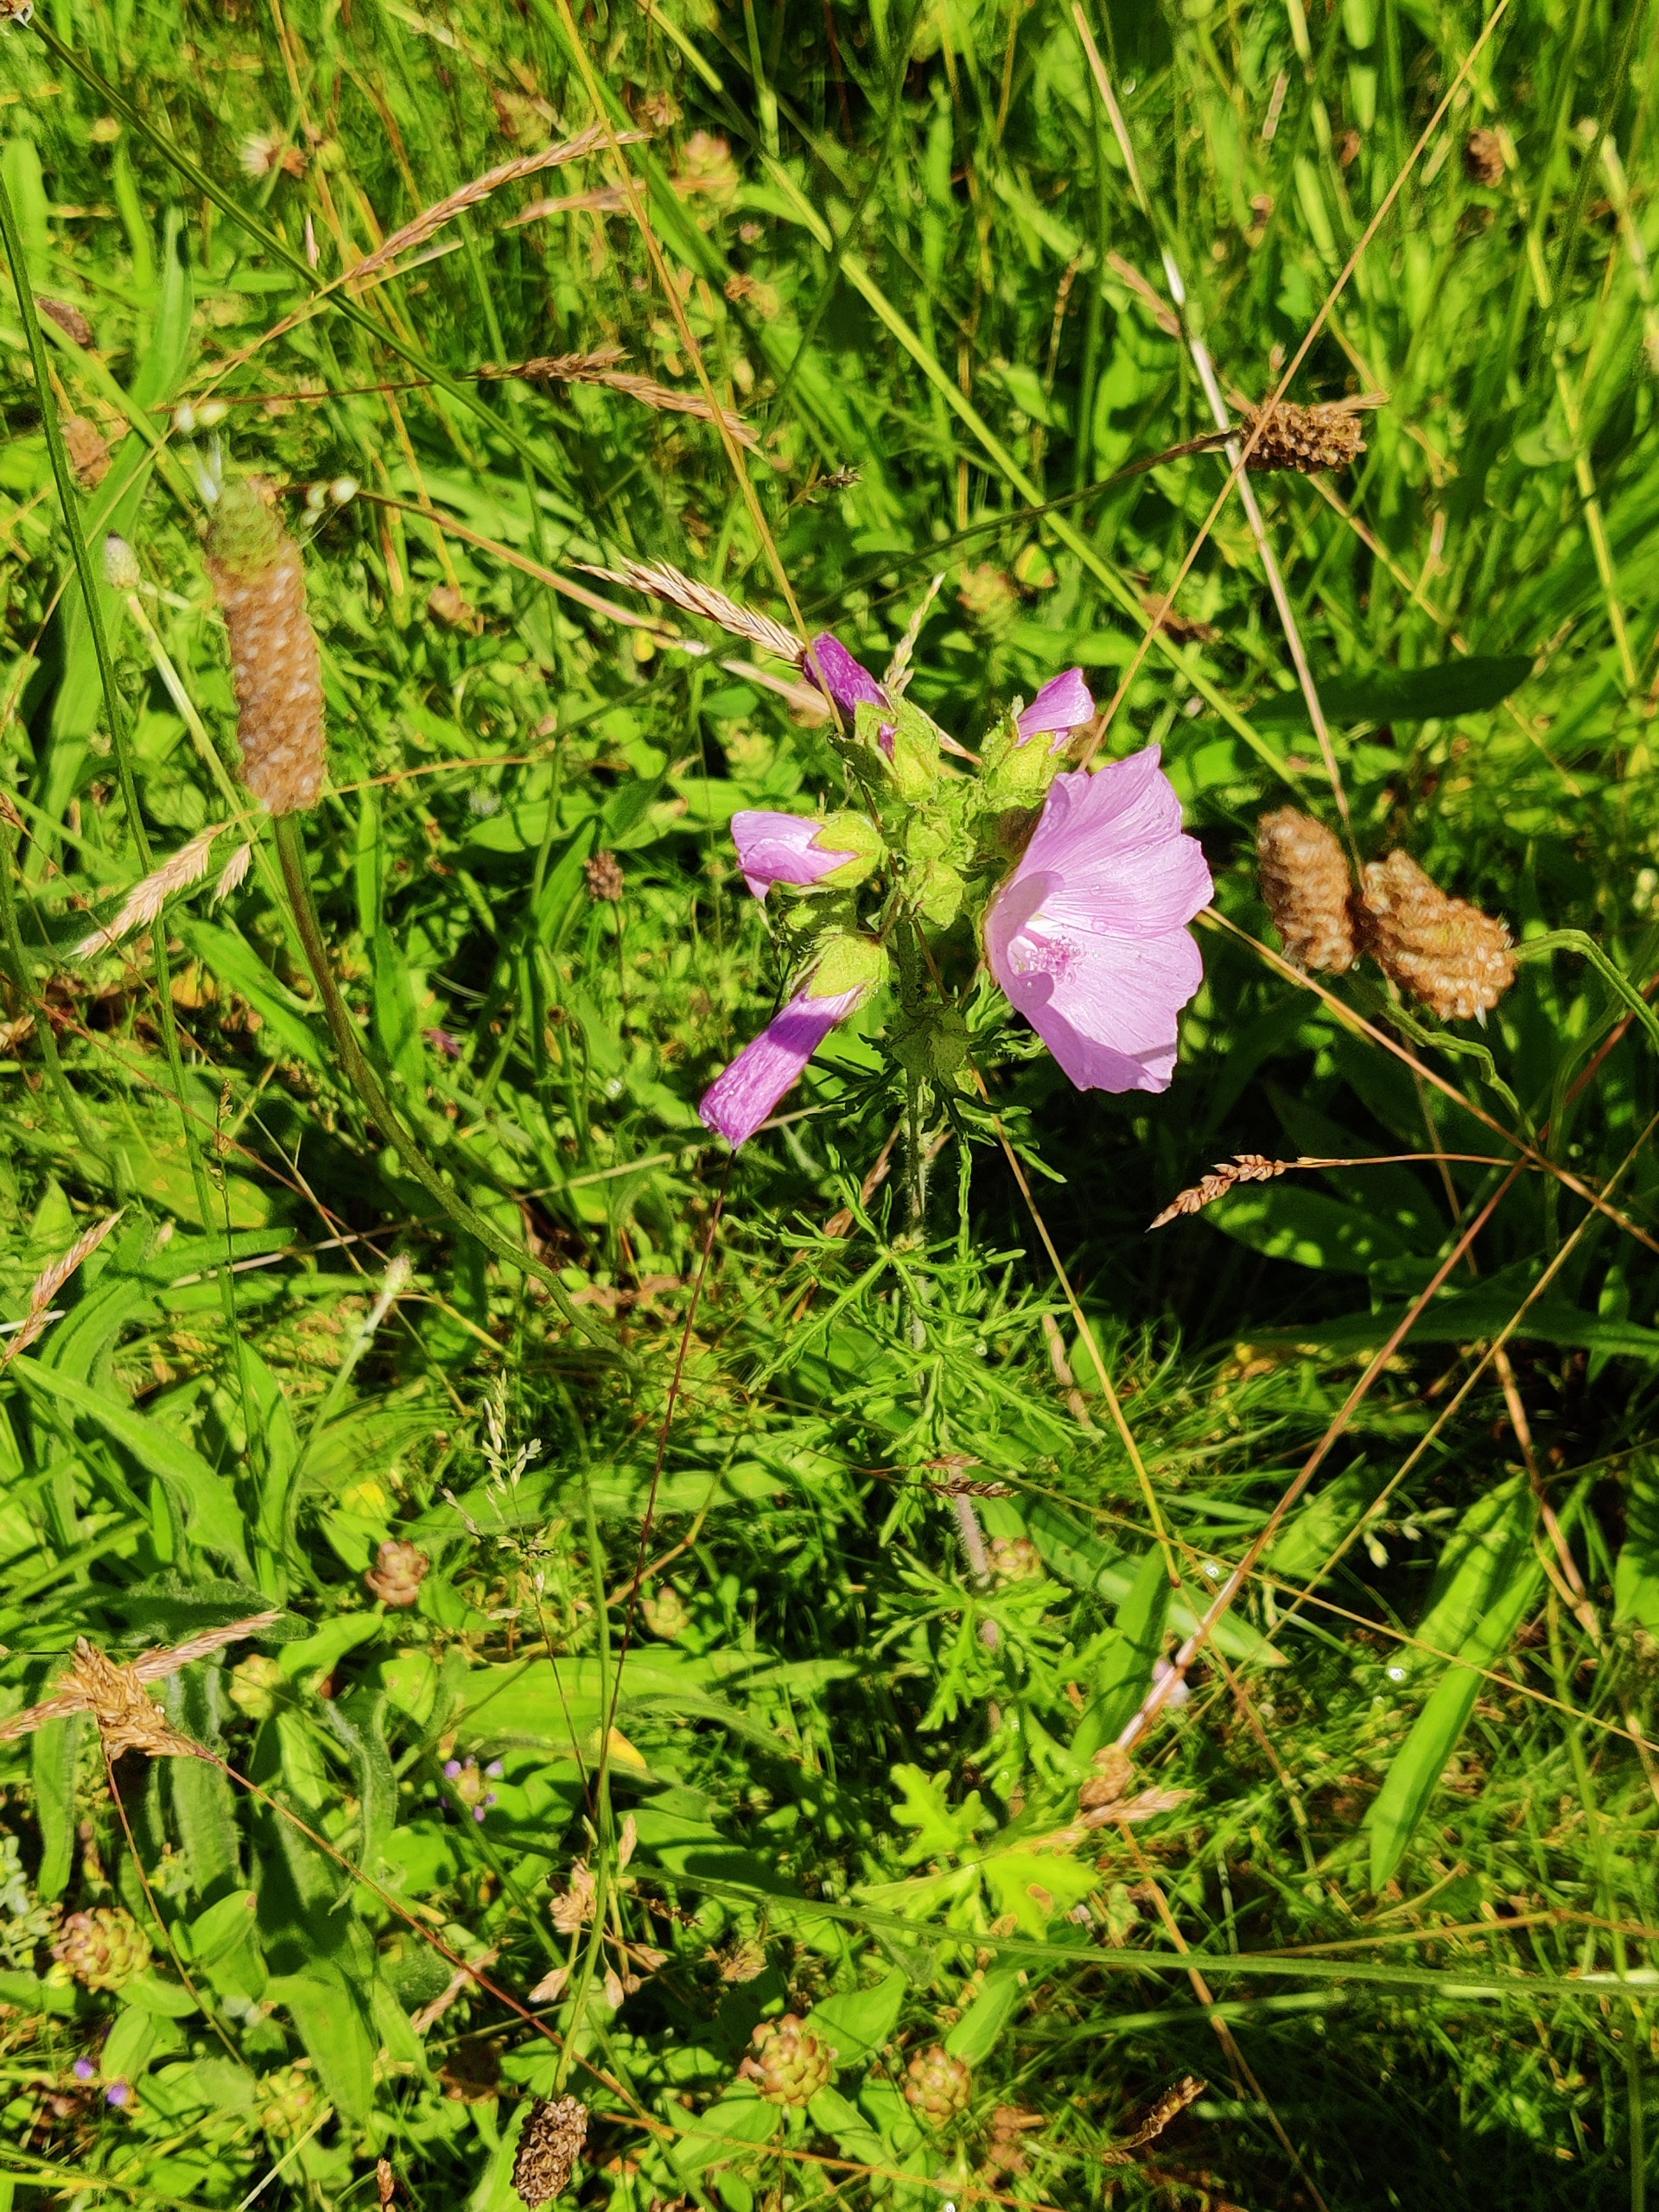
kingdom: Plantae
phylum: Tracheophyta
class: Magnoliopsida
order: Malvales
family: Malvaceae
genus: Malva
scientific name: Malva moschata
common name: Moskus-katost
